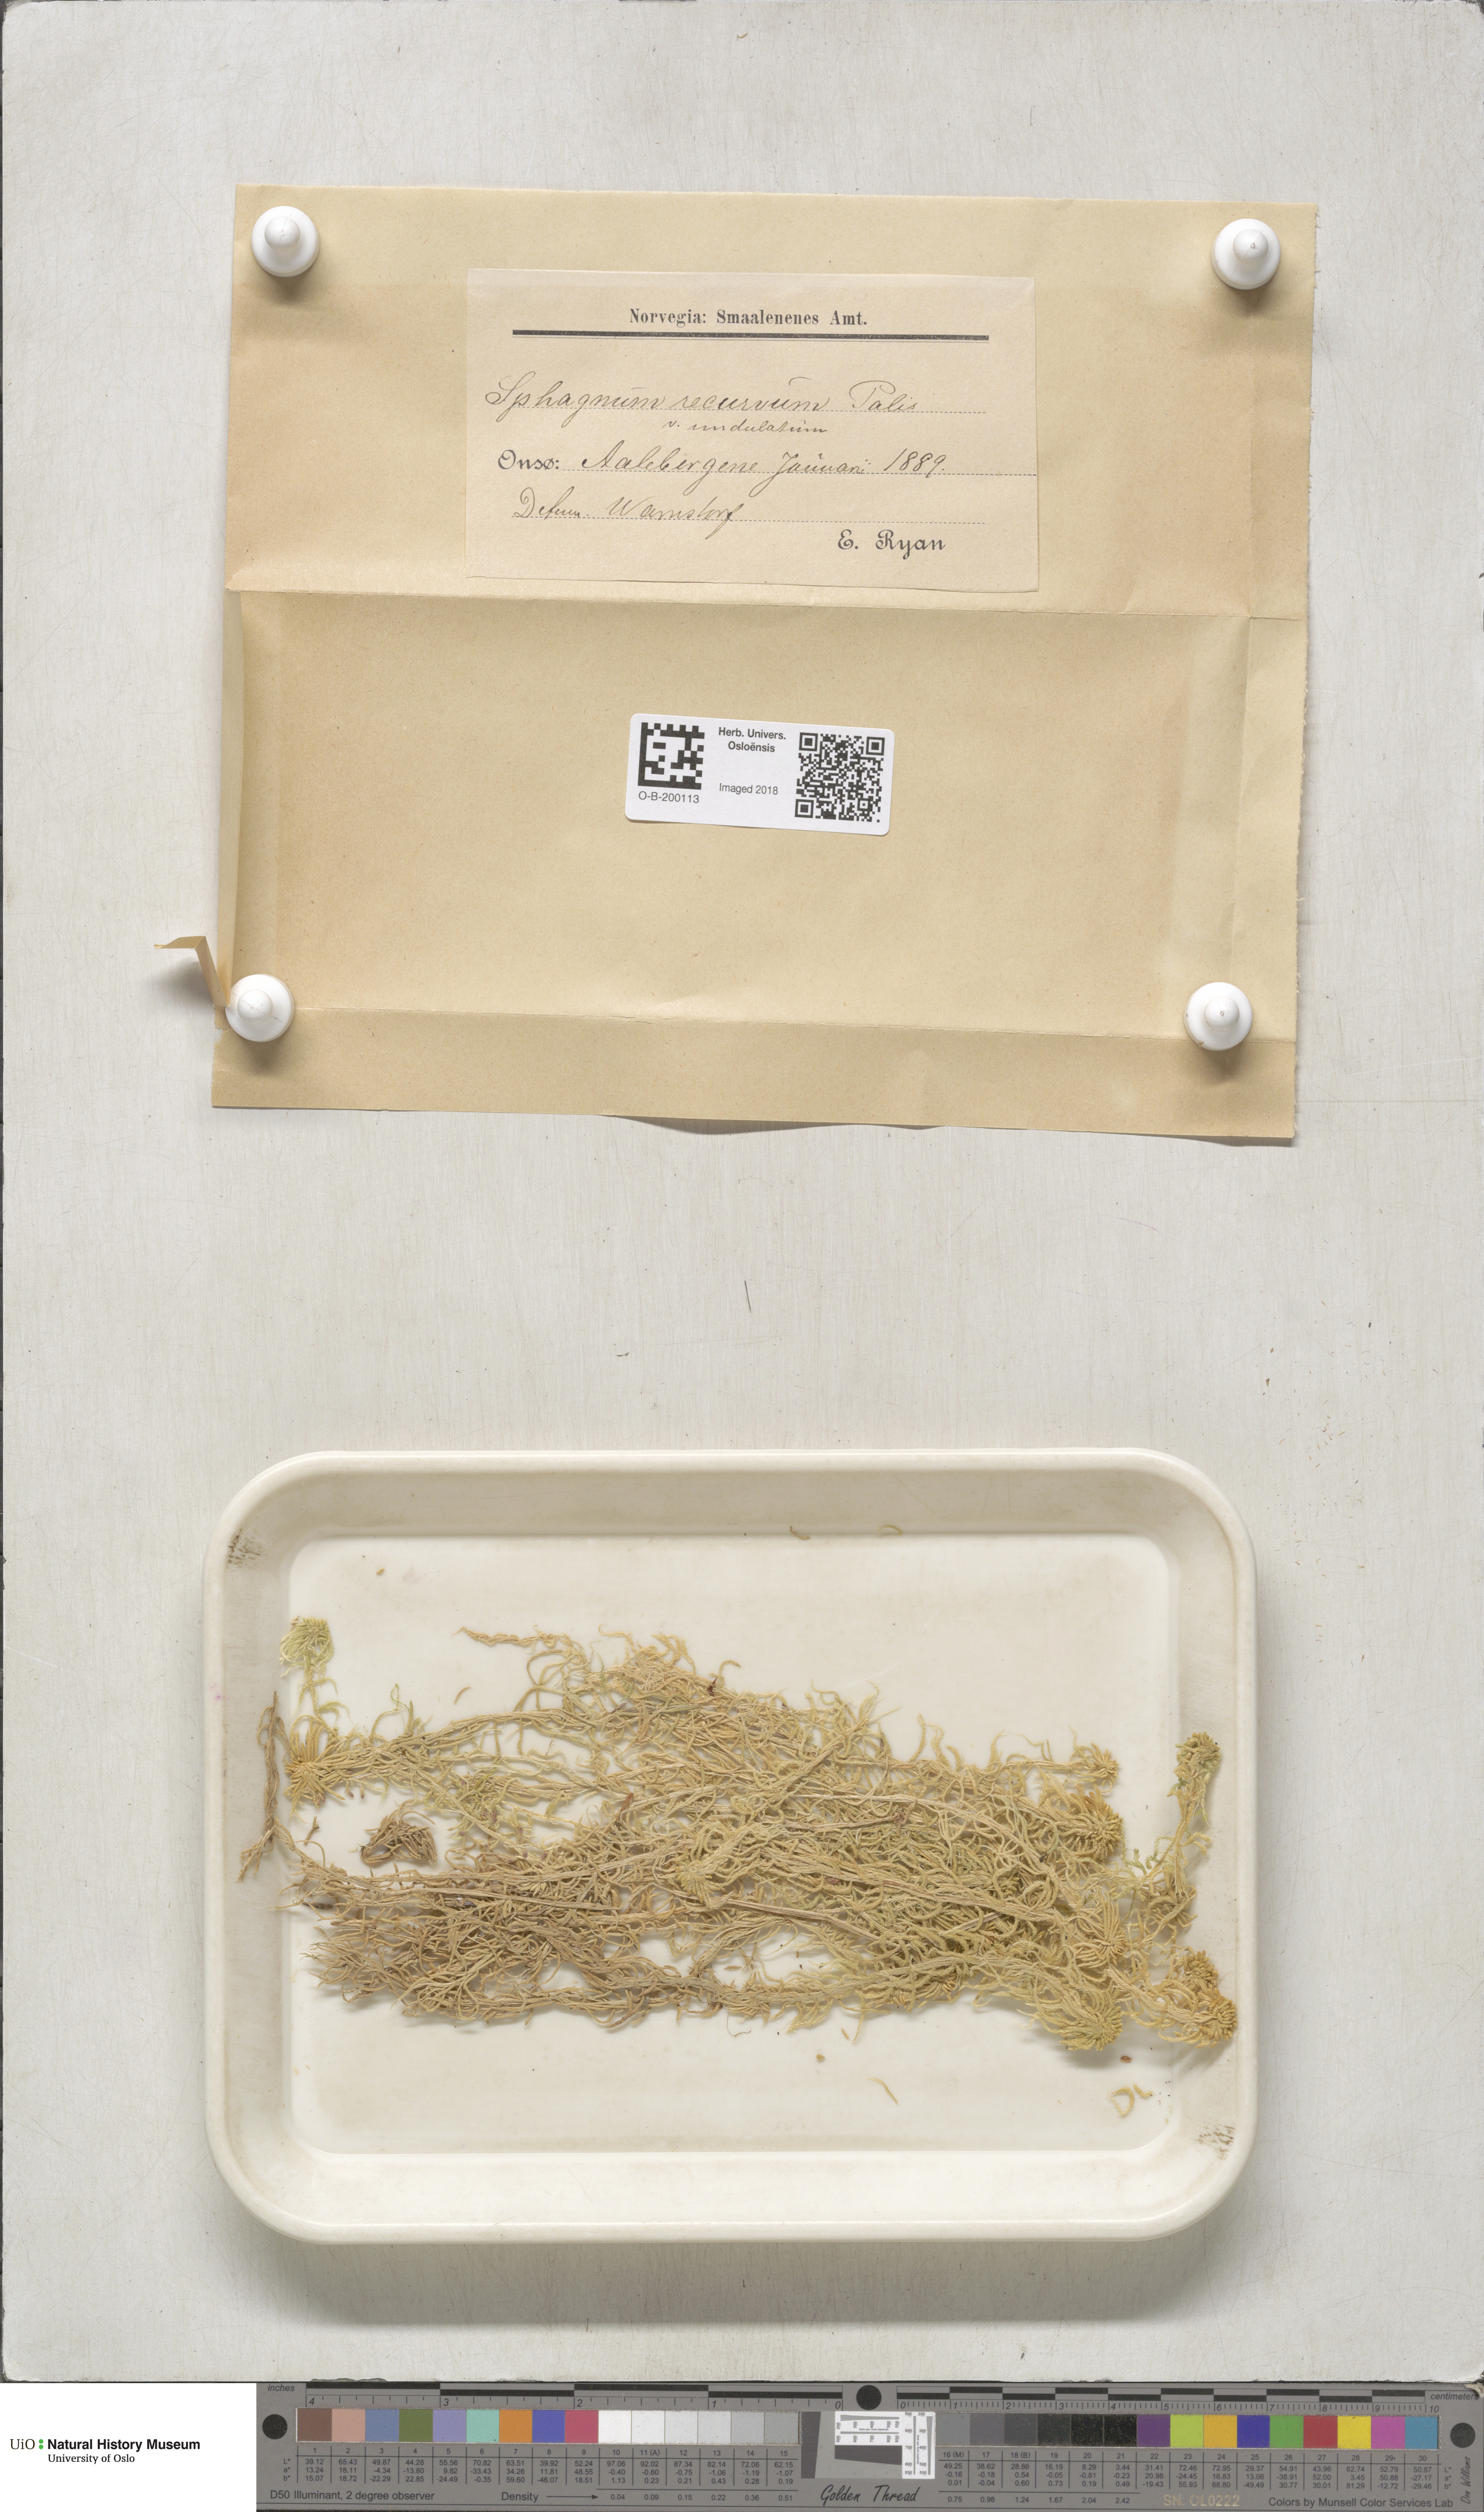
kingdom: Plantae
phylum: Bryophyta
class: Sphagnopsida
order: Sphagnales
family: Sphagnaceae
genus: Sphagnum
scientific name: Sphagnum fallax
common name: Flat-top peat moss
